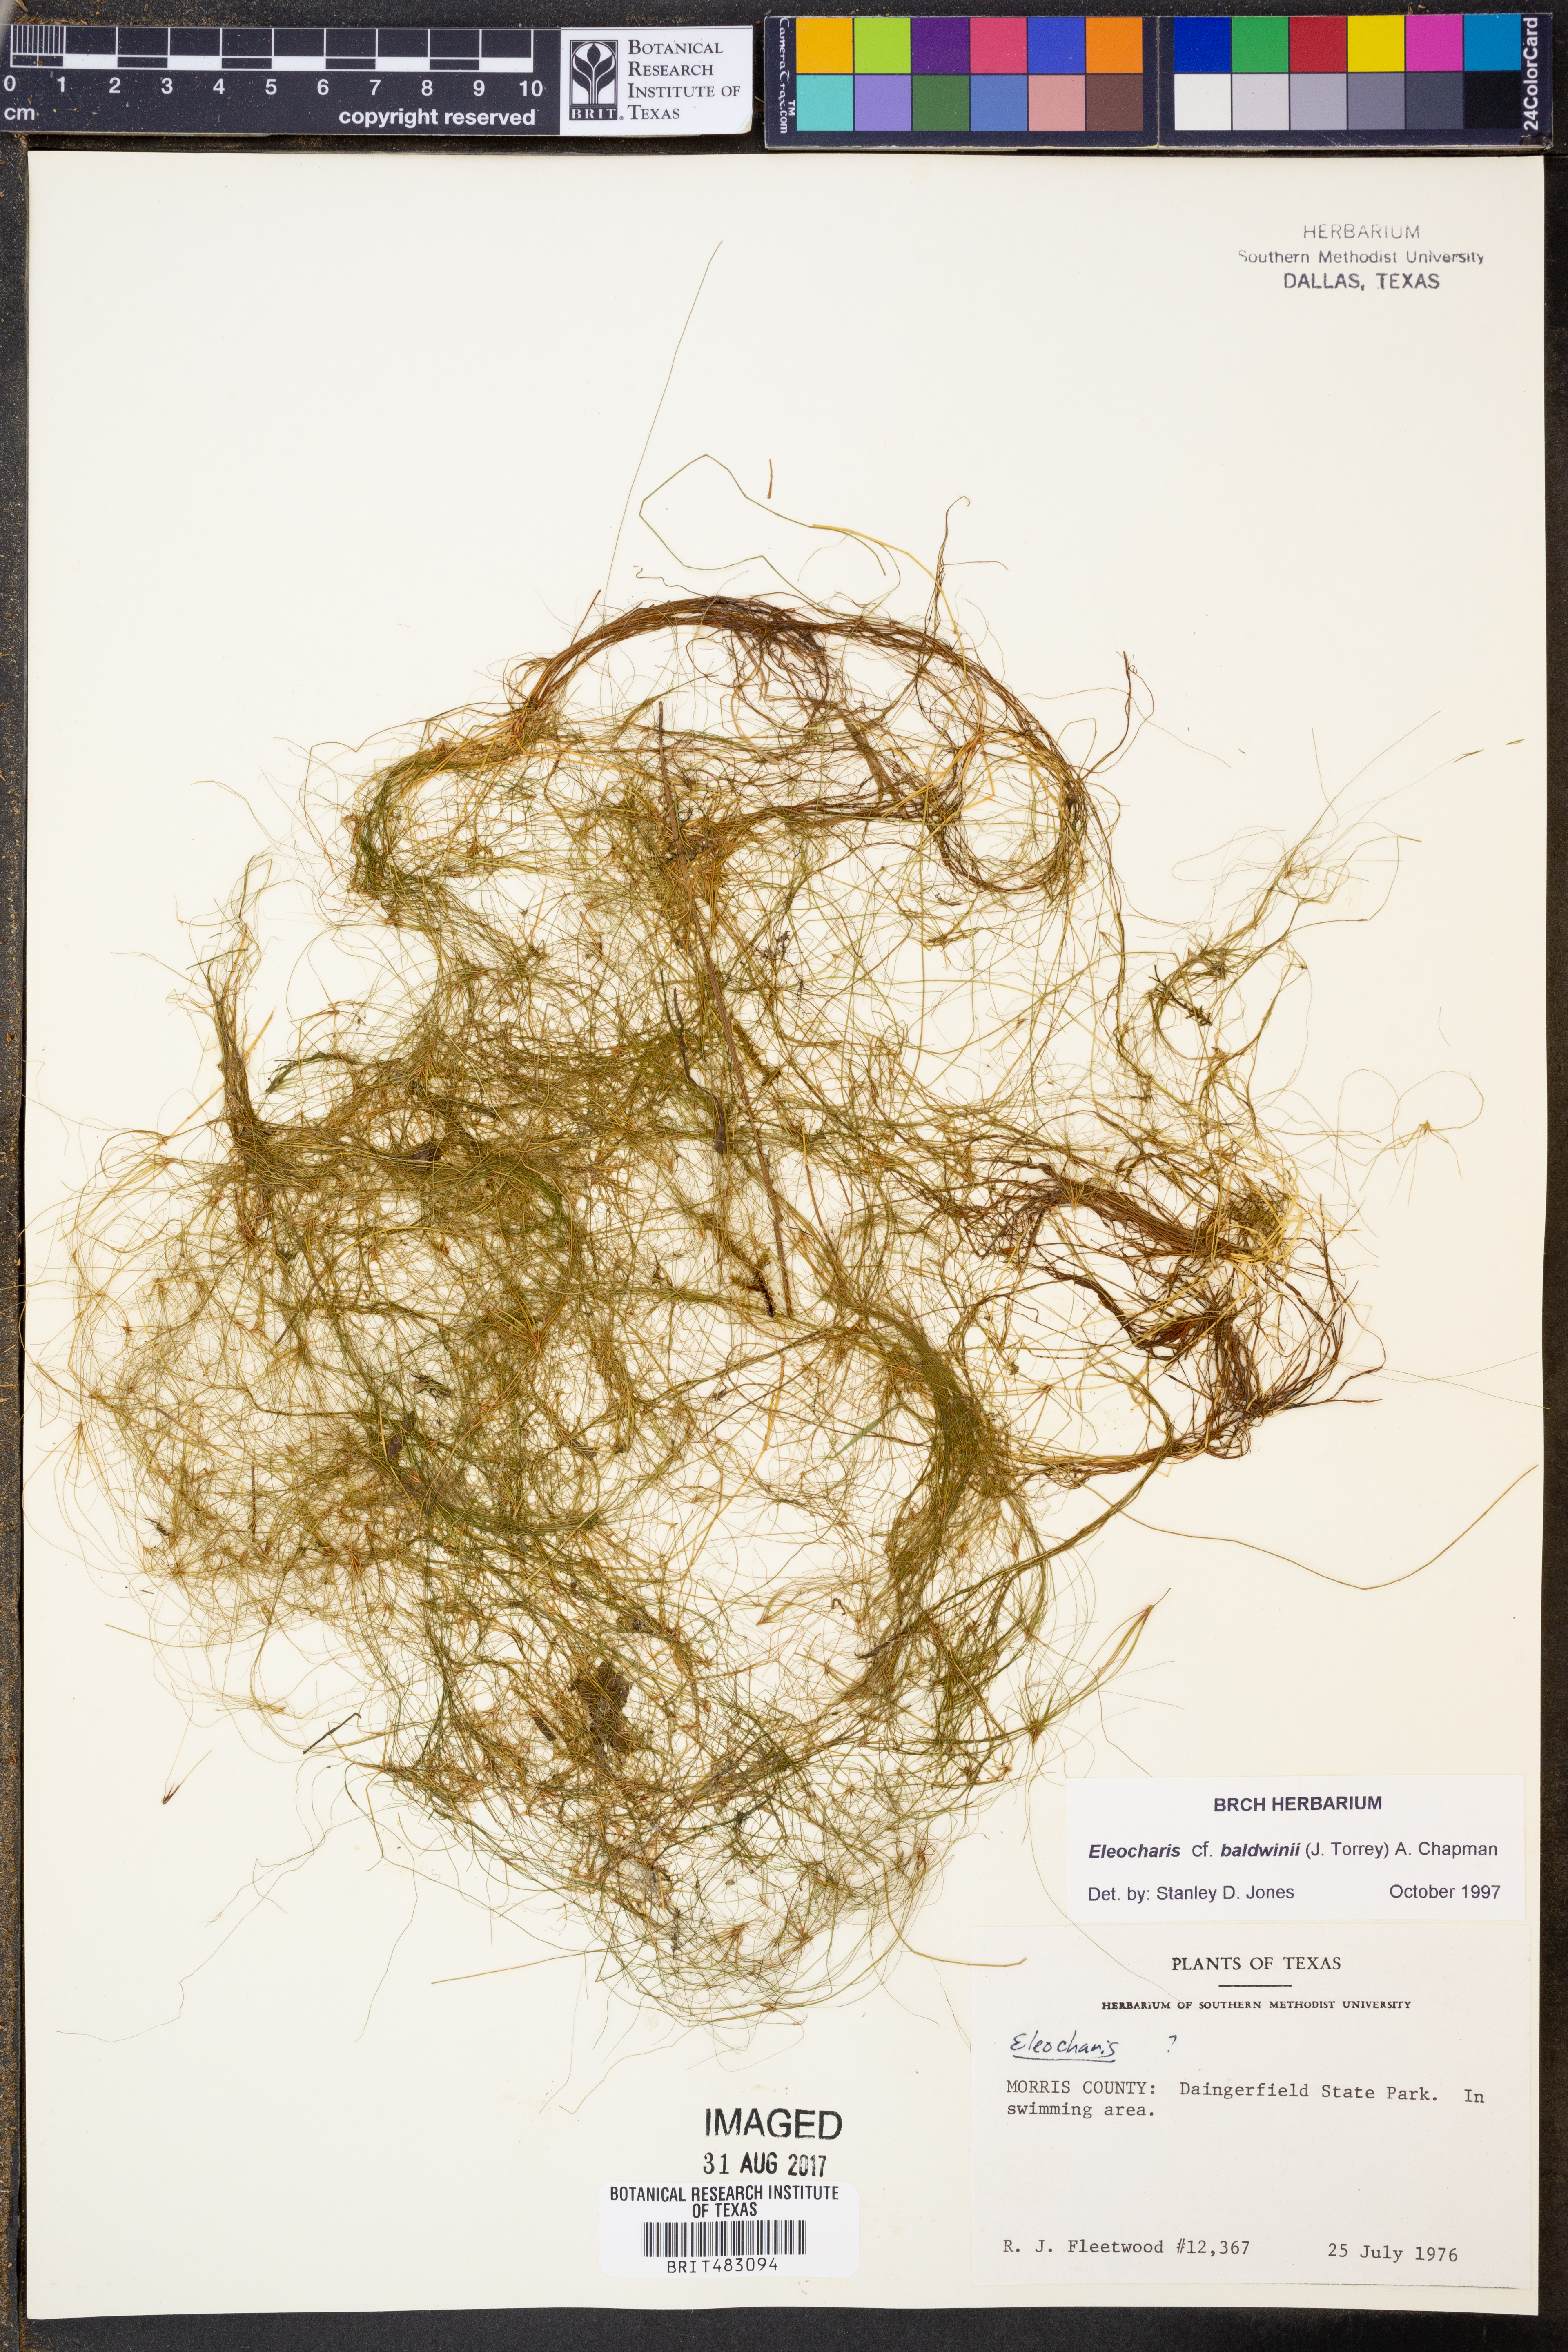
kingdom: Plantae
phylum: Tracheophyta
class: Liliopsida
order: Poales
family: Cyperaceae
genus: Eleocharis
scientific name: Eleocharis baldwinii
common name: Baldwin's spike-rush
